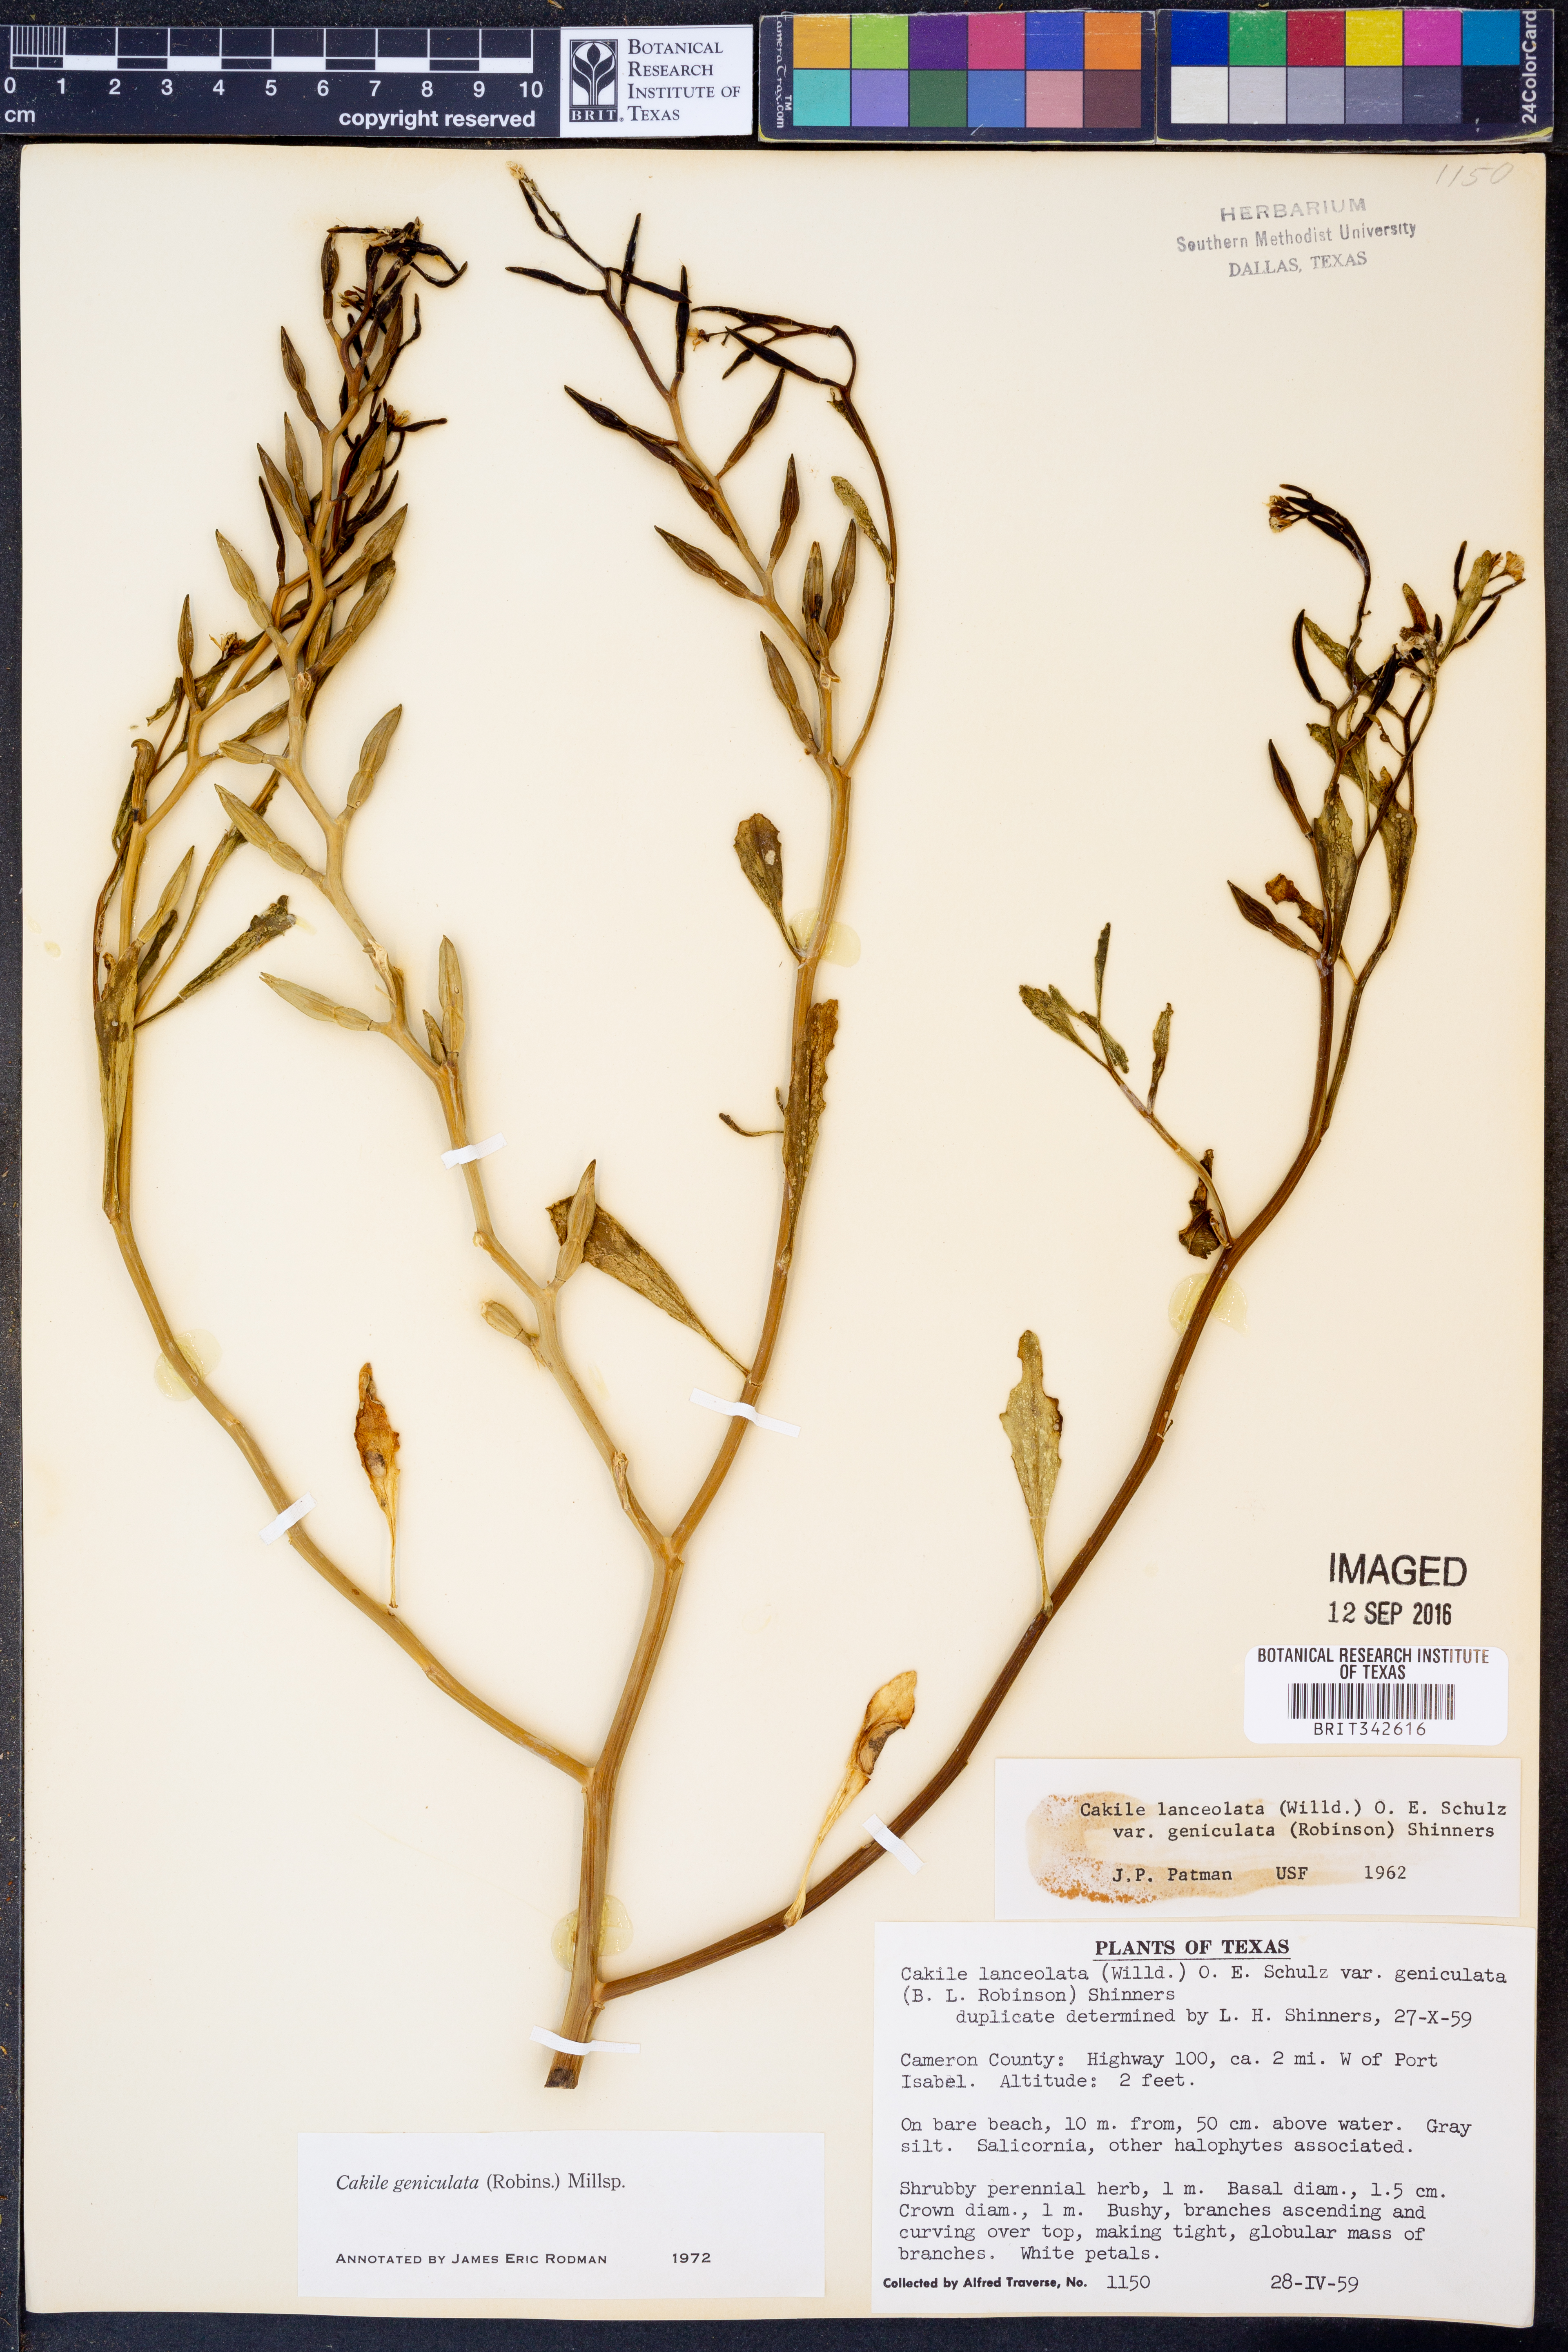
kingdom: Plantae
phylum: Tracheophyta
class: Magnoliopsida
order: Brassicales
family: Brassicaceae
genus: Cakile
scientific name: Cakile geniculata
